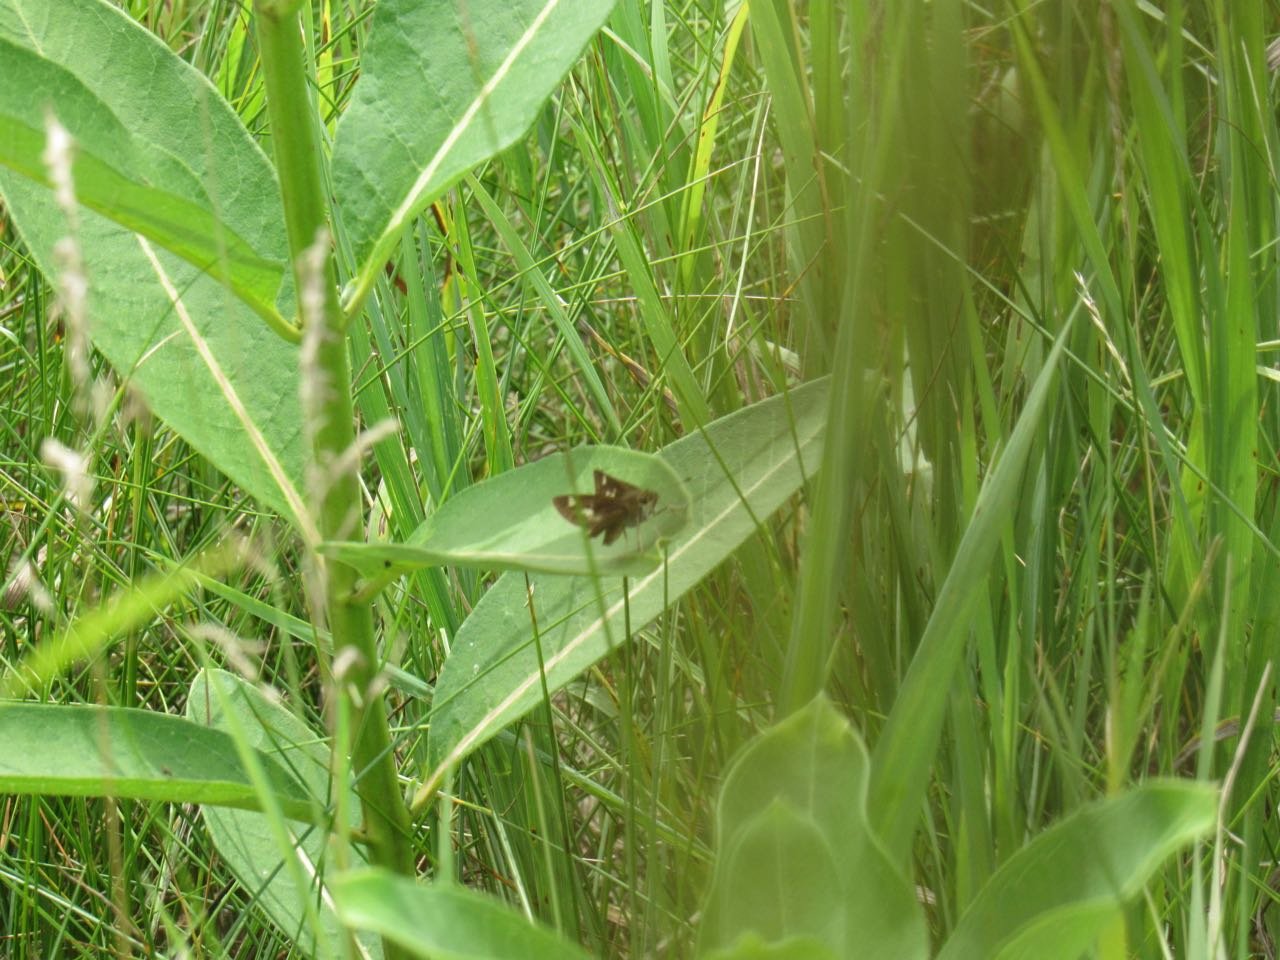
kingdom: Animalia
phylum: Arthropoda
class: Insecta
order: Lepidoptera
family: Hesperiidae
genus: Vernia
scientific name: Vernia verna
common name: Little Glassywing
